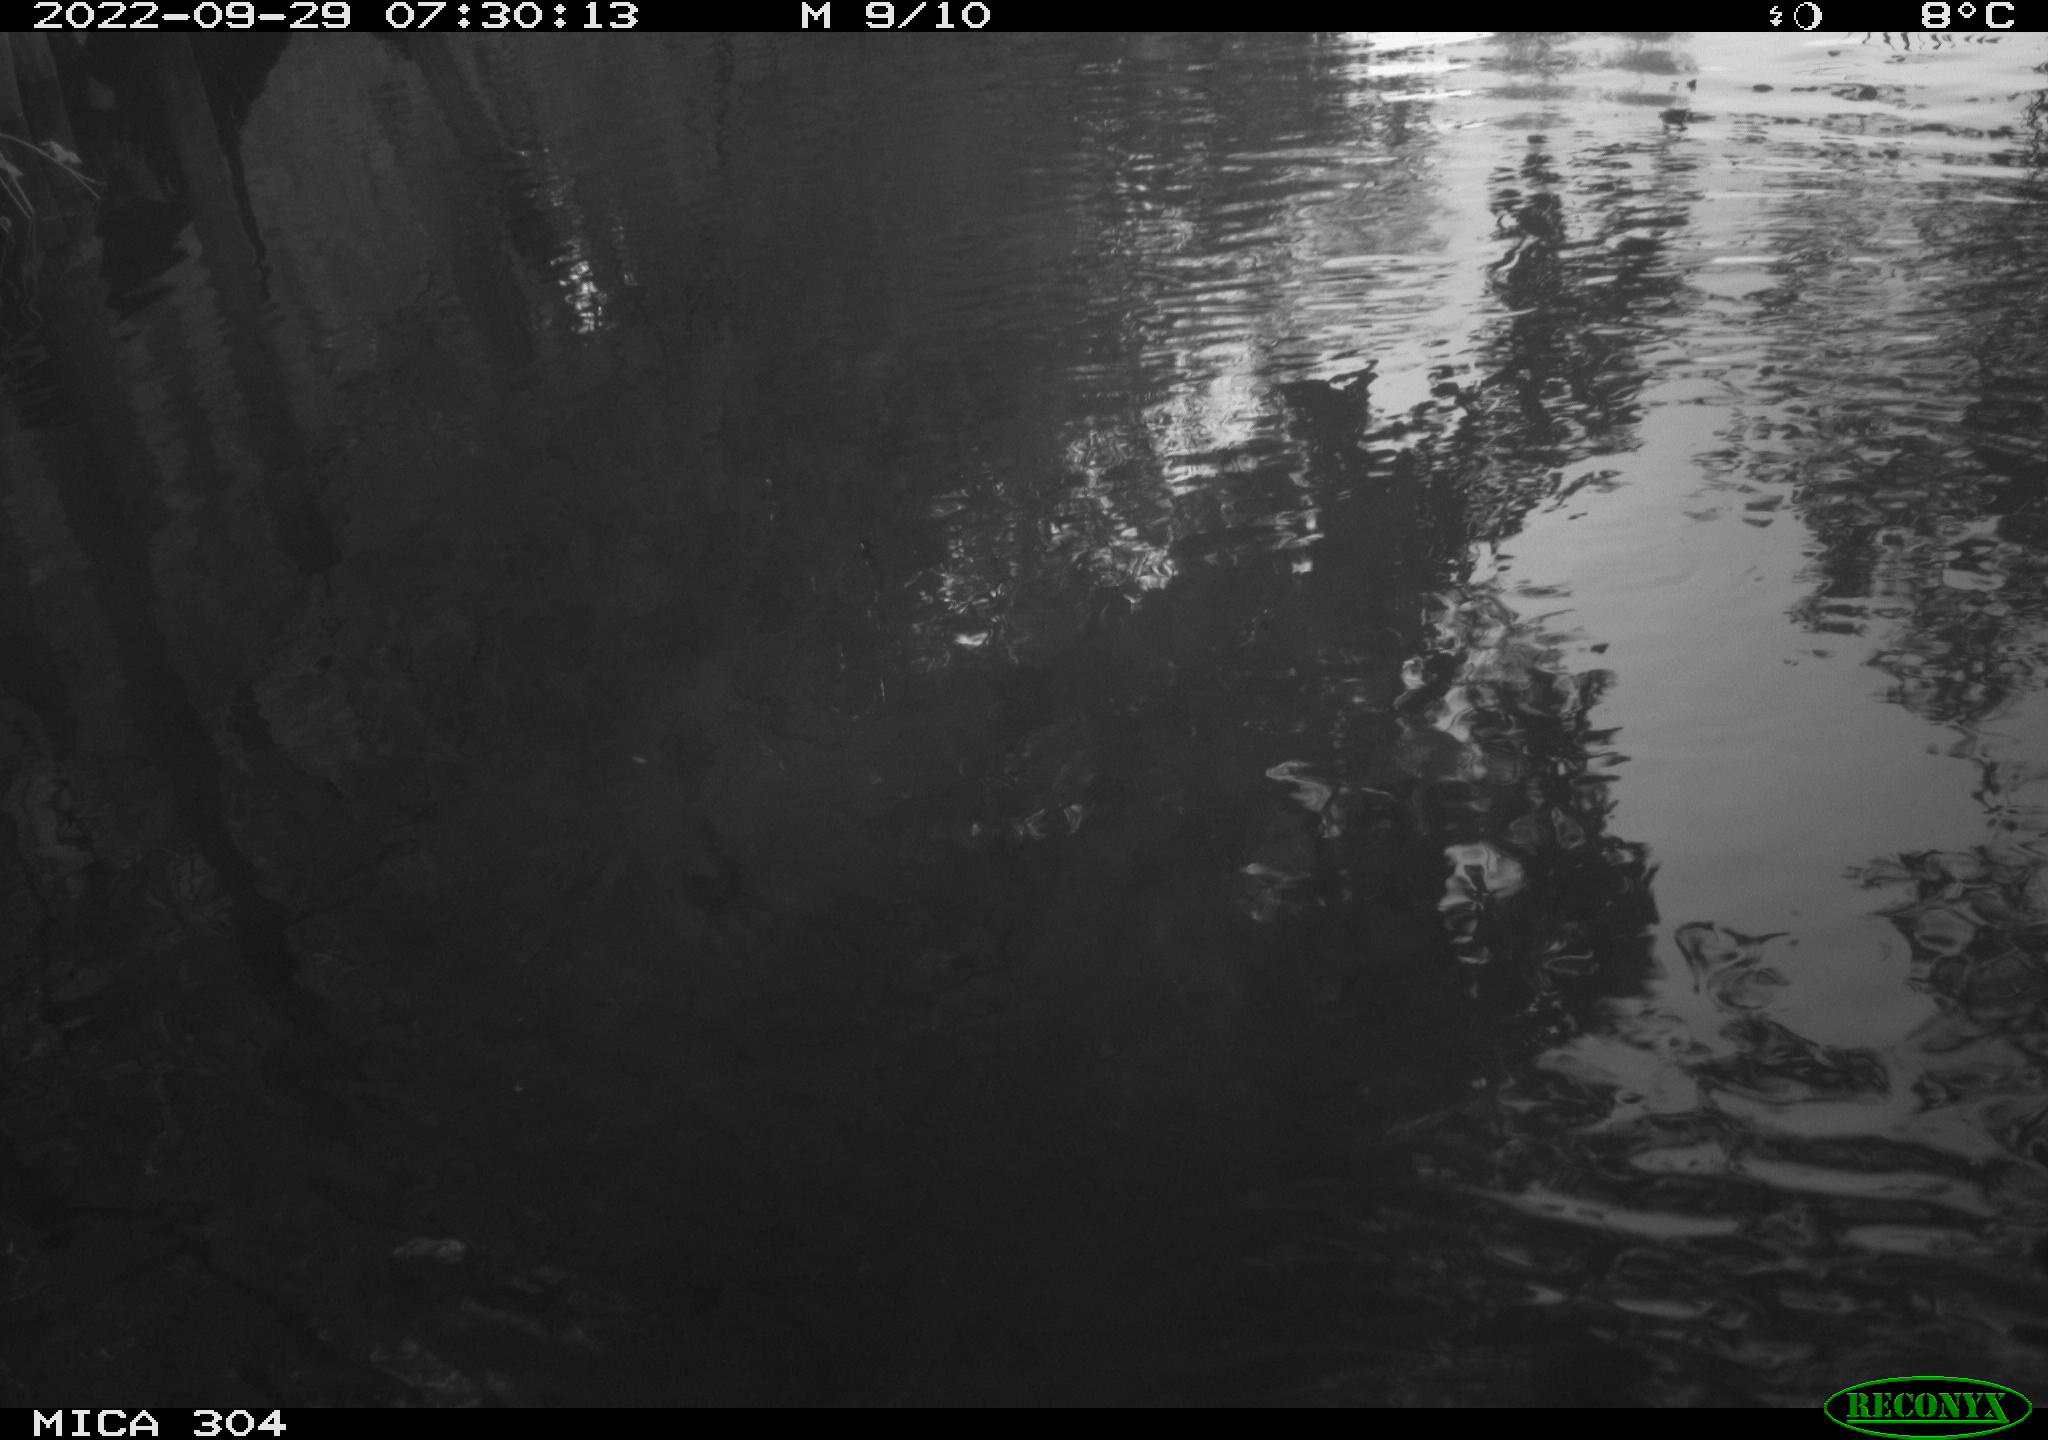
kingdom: Animalia
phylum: Chordata
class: Aves
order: Gruiformes
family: Rallidae
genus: Gallinula
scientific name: Gallinula chloropus
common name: Common moorhen
